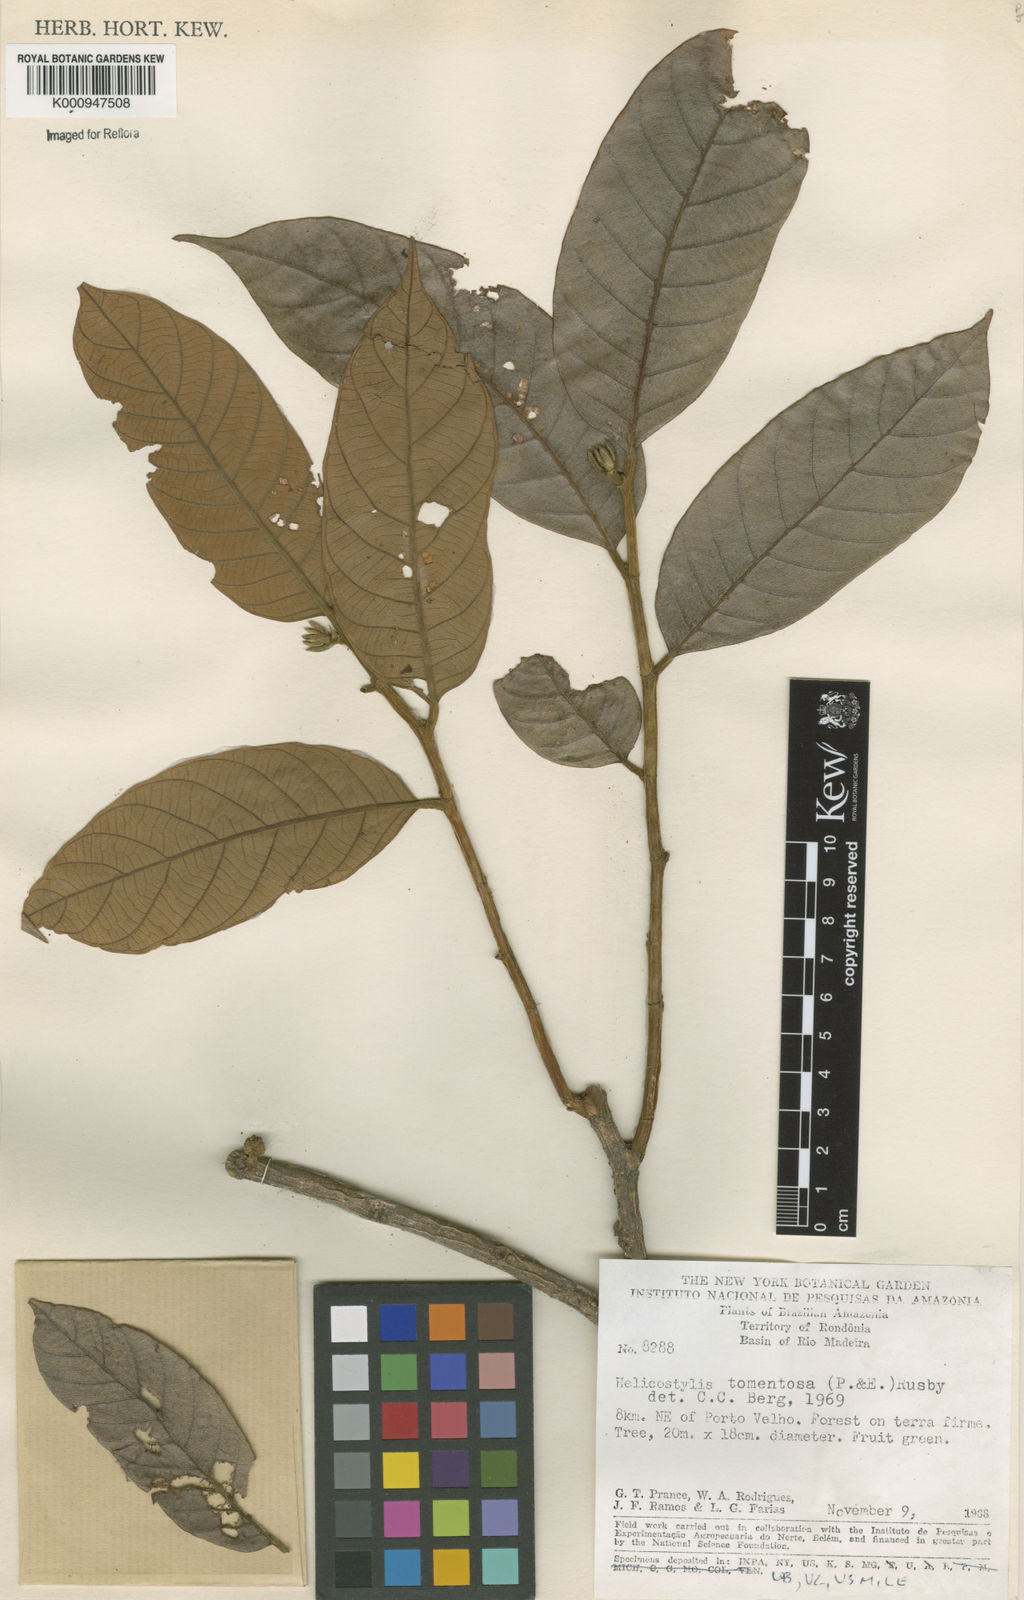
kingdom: Plantae
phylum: Tracheophyta
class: Magnoliopsida
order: Rosales
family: Moraceae
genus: Helicostylis
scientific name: Helicostylis
